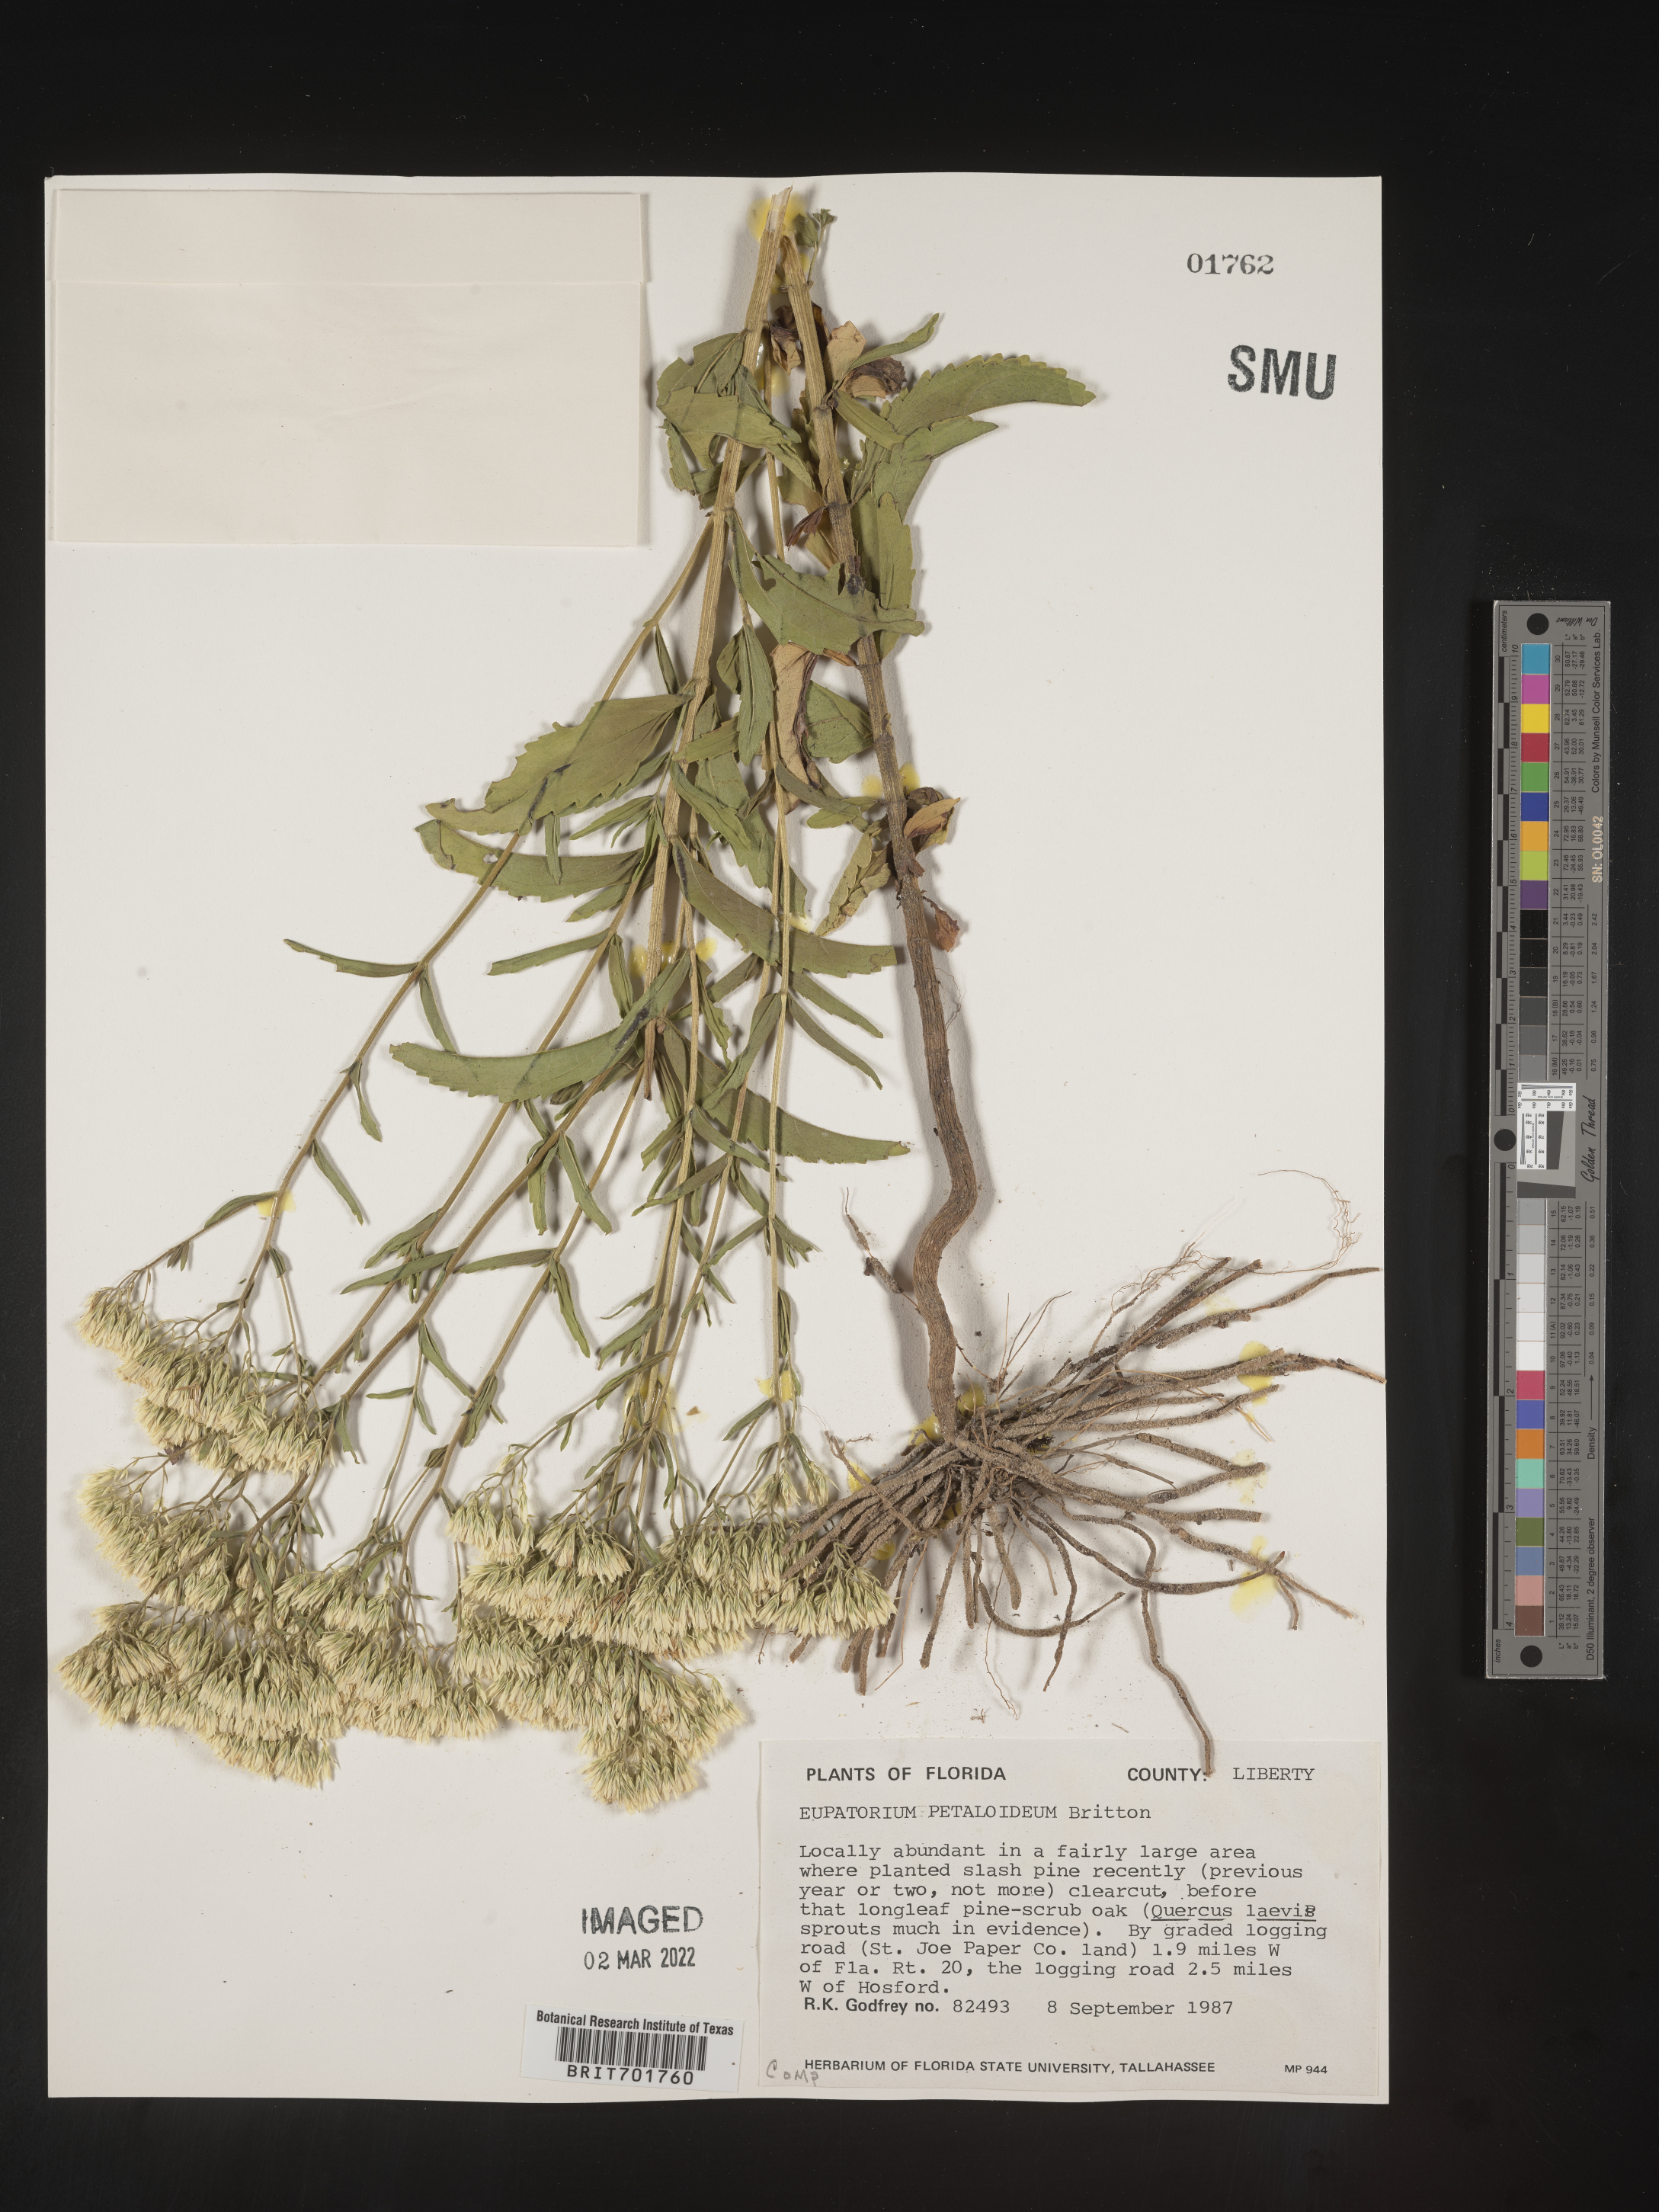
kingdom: Plantae
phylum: Tracheophyta
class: Magnoliopsida
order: Asterales
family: Asteraceae
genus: Eupatorium
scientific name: Eupatorium
